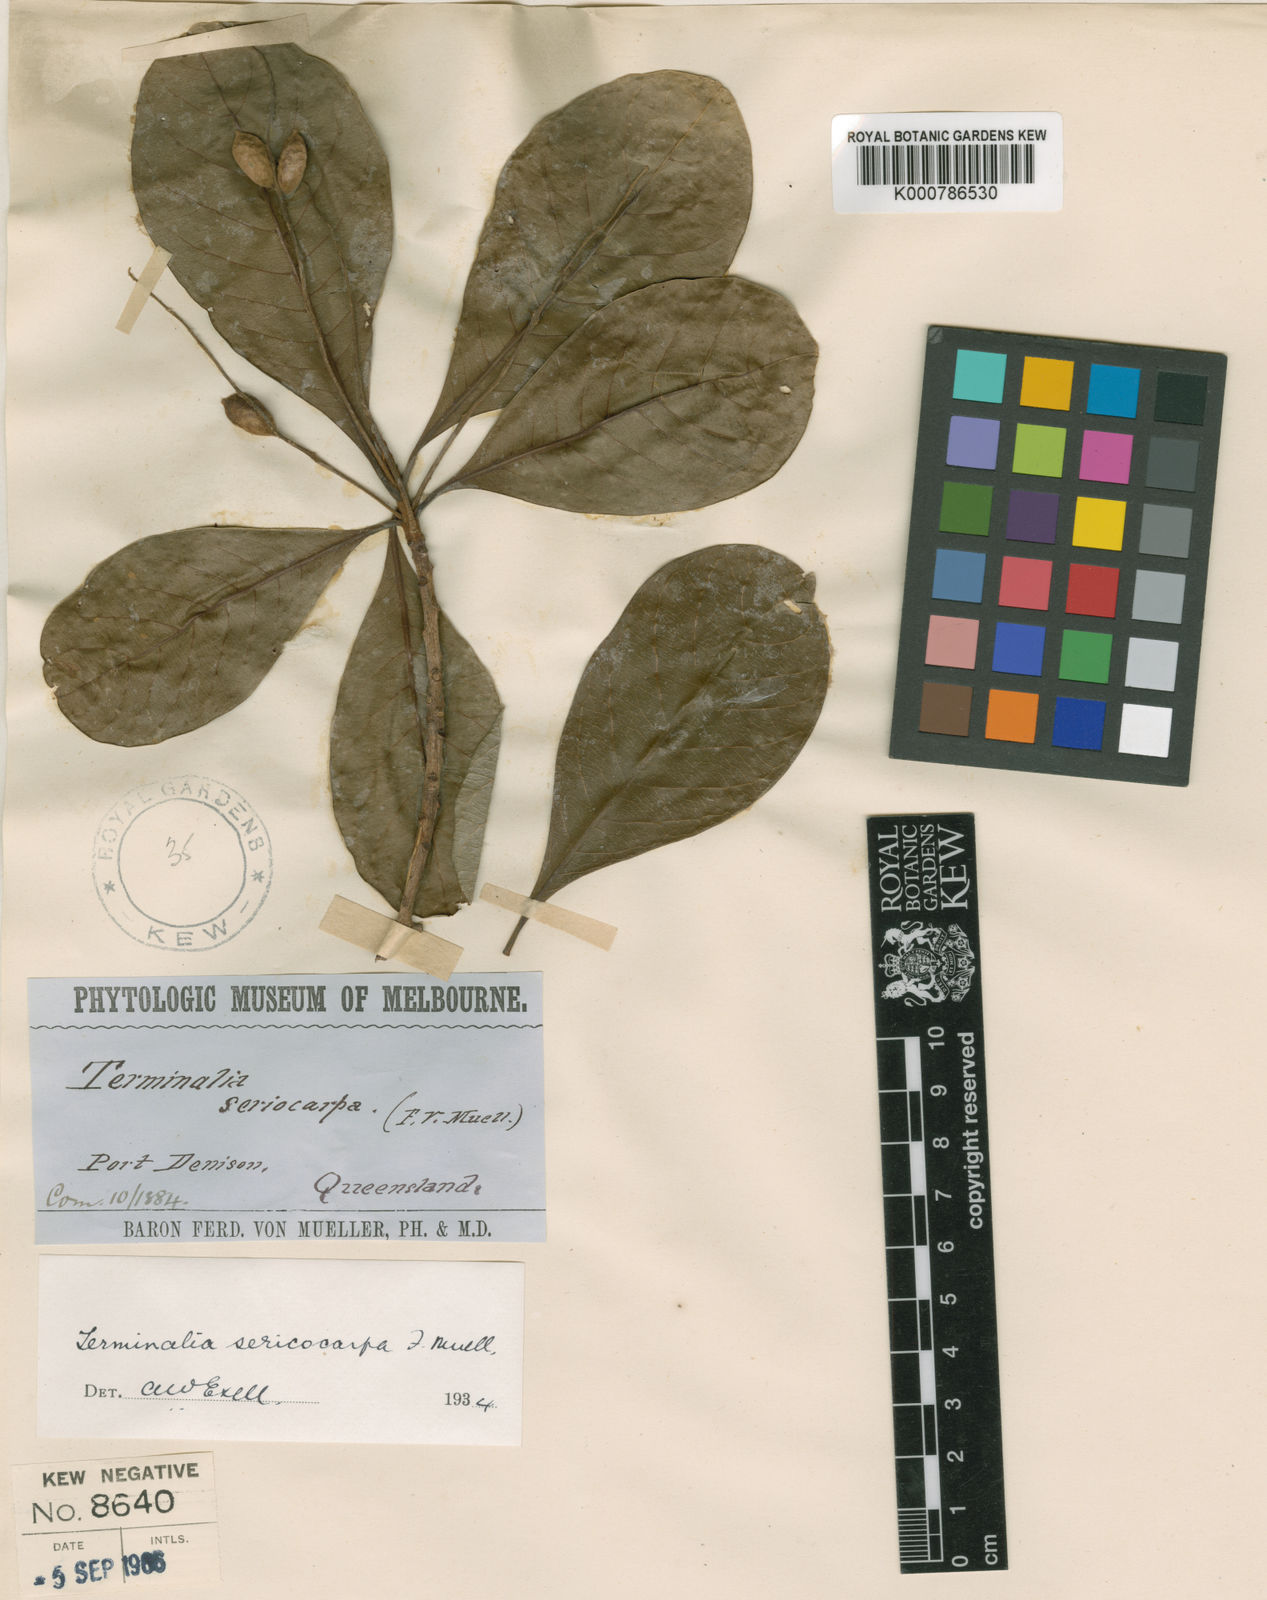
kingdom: Plantae
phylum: Tracheophyta
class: Magnoliopsida
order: Myrtales
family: Combretaceae
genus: Terminalia
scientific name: Terminalia sericocarpa
